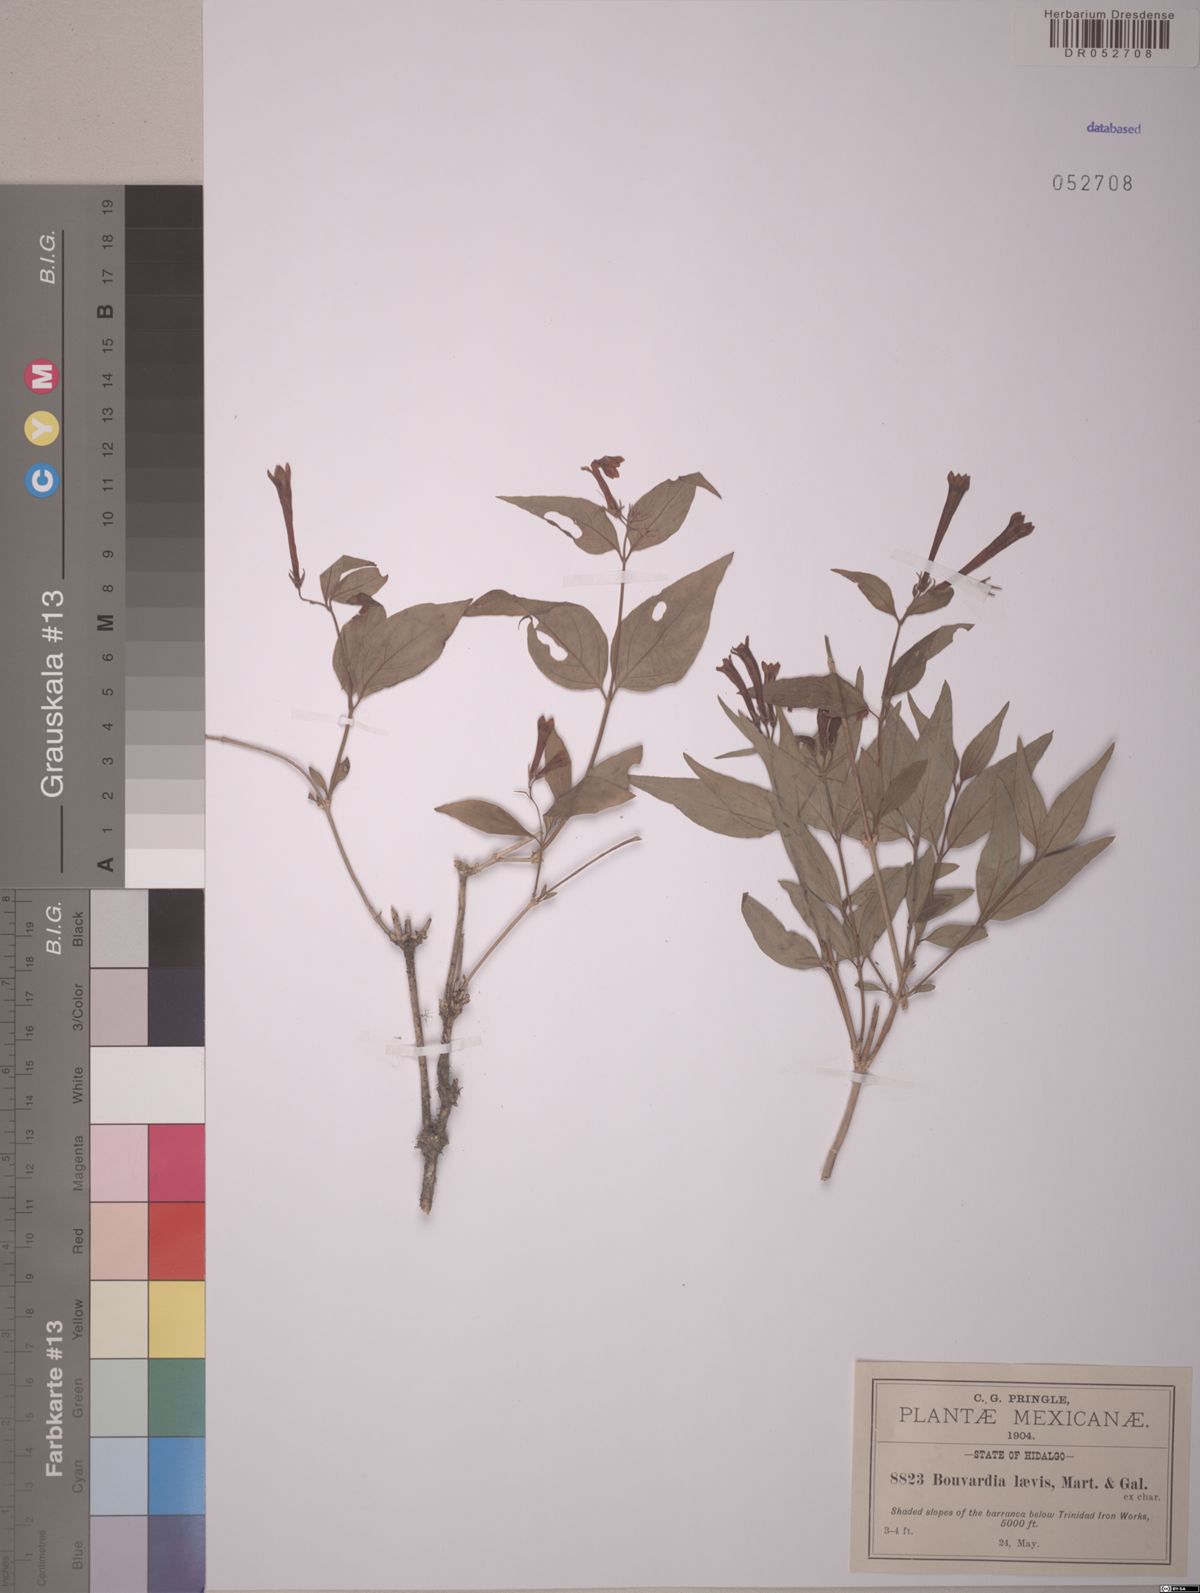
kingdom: Plantae
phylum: Tracheophyta
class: Magnoliopsida
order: Gentianales
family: Rubiaceae
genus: Bouvardia
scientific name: Bouvardia laevis
